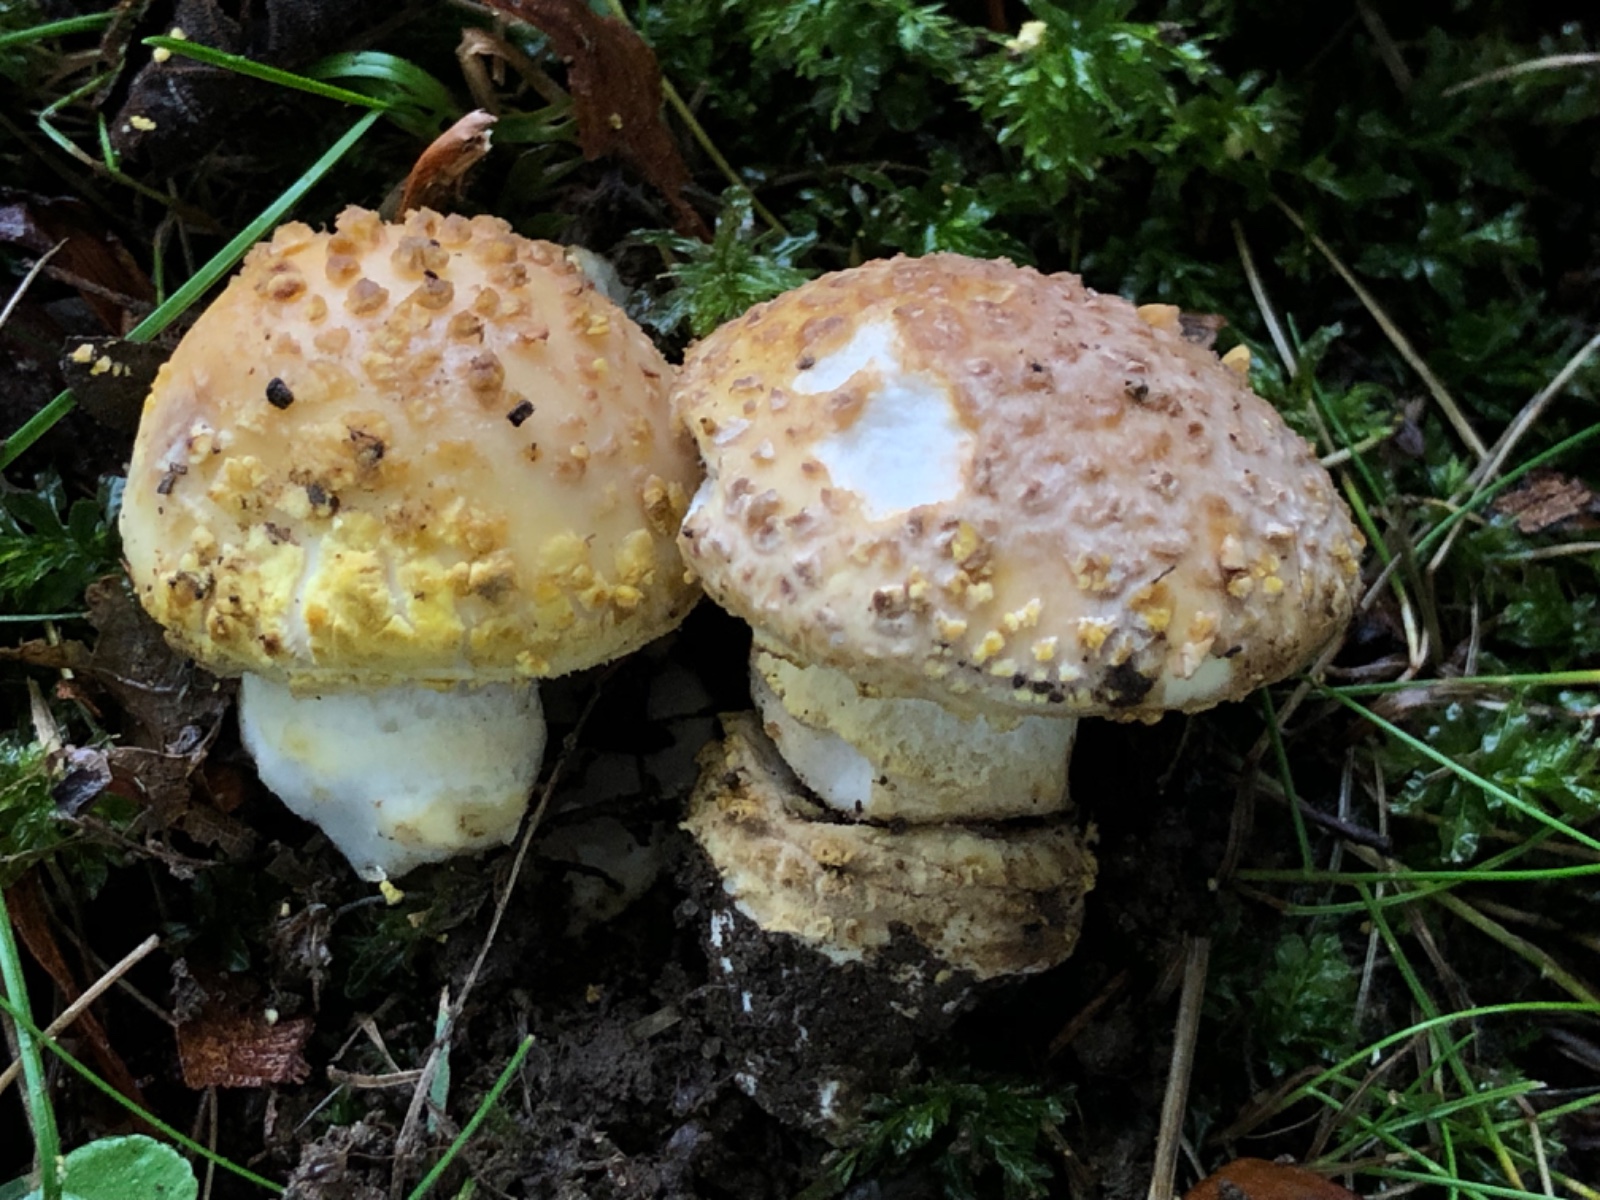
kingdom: Fungi
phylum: Basidiomycota
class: Agaricomycetes
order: Agaricales
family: Amanitaceae
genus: Amanita
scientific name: Amanita franchetii
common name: gulrandet fluesvamp
